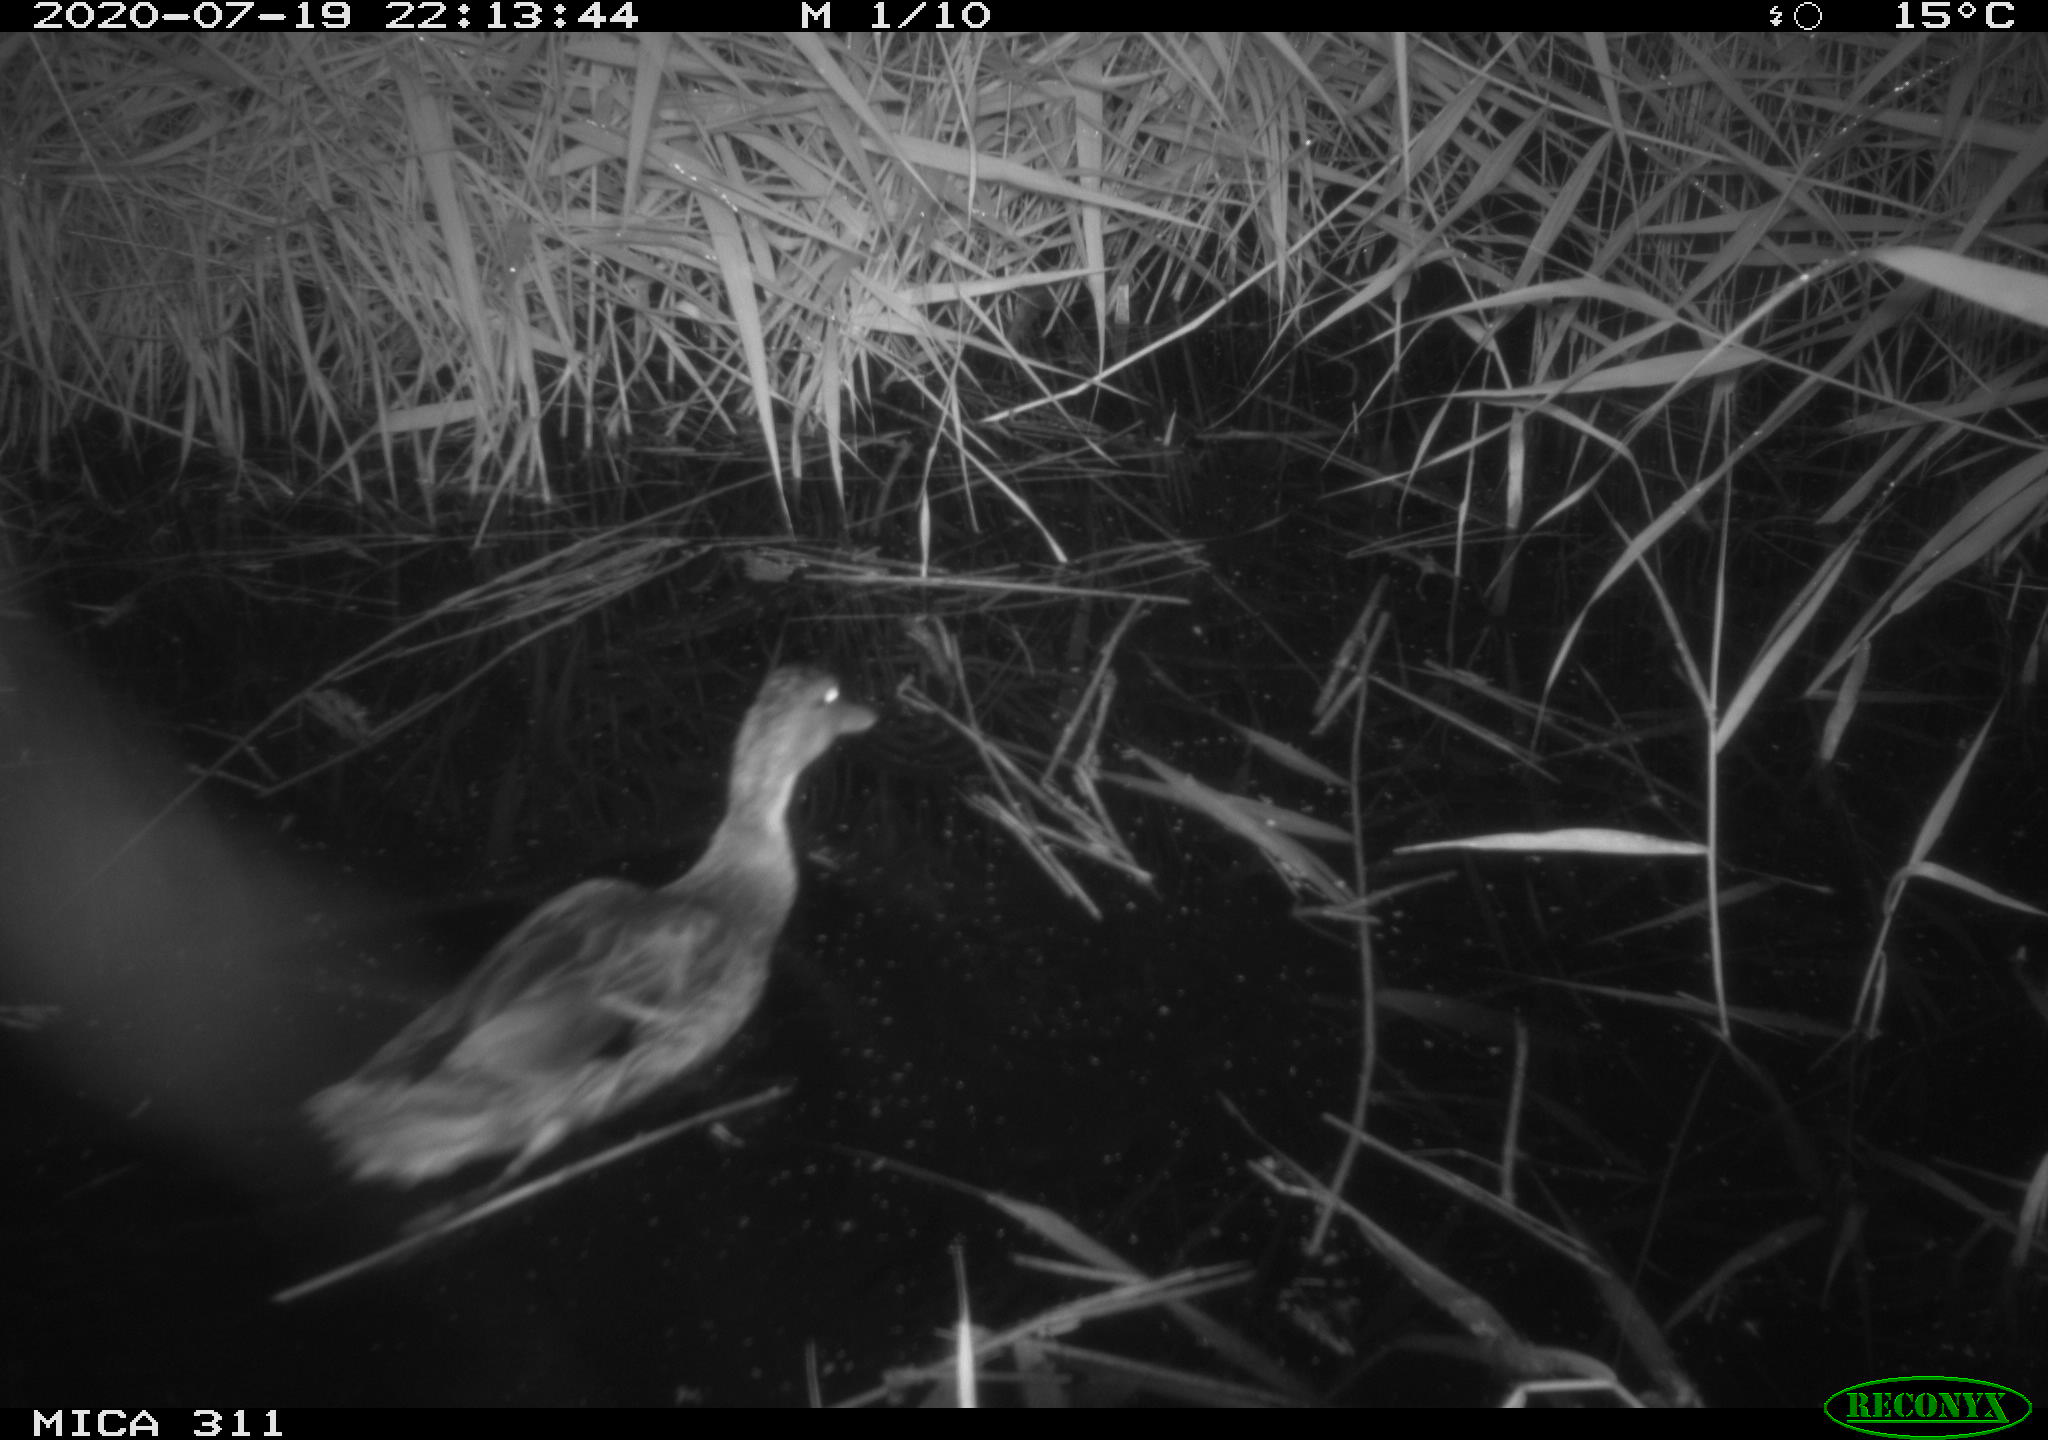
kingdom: Animalia
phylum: Chordata
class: Aves
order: Anseriformes
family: Anatidae
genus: Anas
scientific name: Anas platyrhynchos
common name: Mallard
